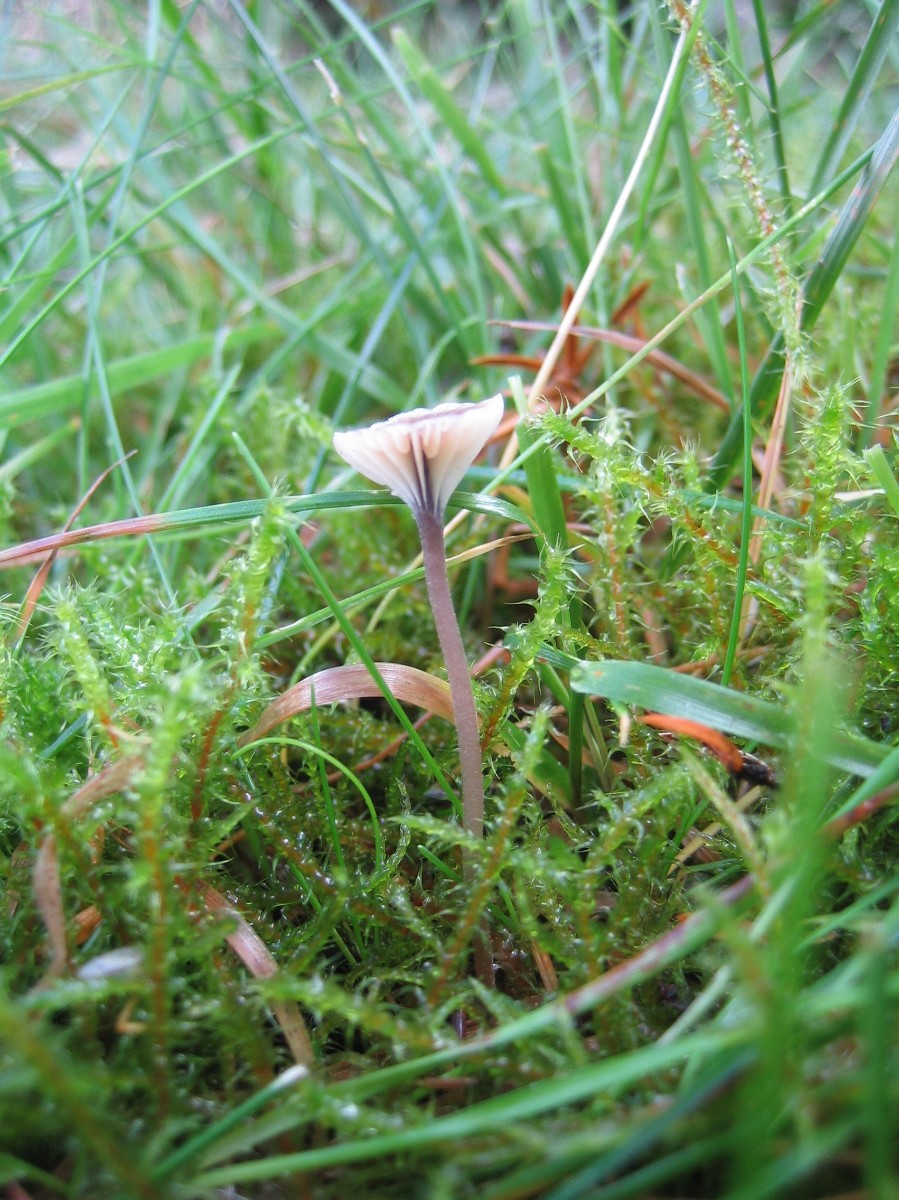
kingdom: Fungi
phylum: Basidiomycota
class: Agaricomycetes
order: Hymenochaetales
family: Rickenellaceae
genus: Rickenella
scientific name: Rickenella swartzii
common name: finstokket mosnavlehat
